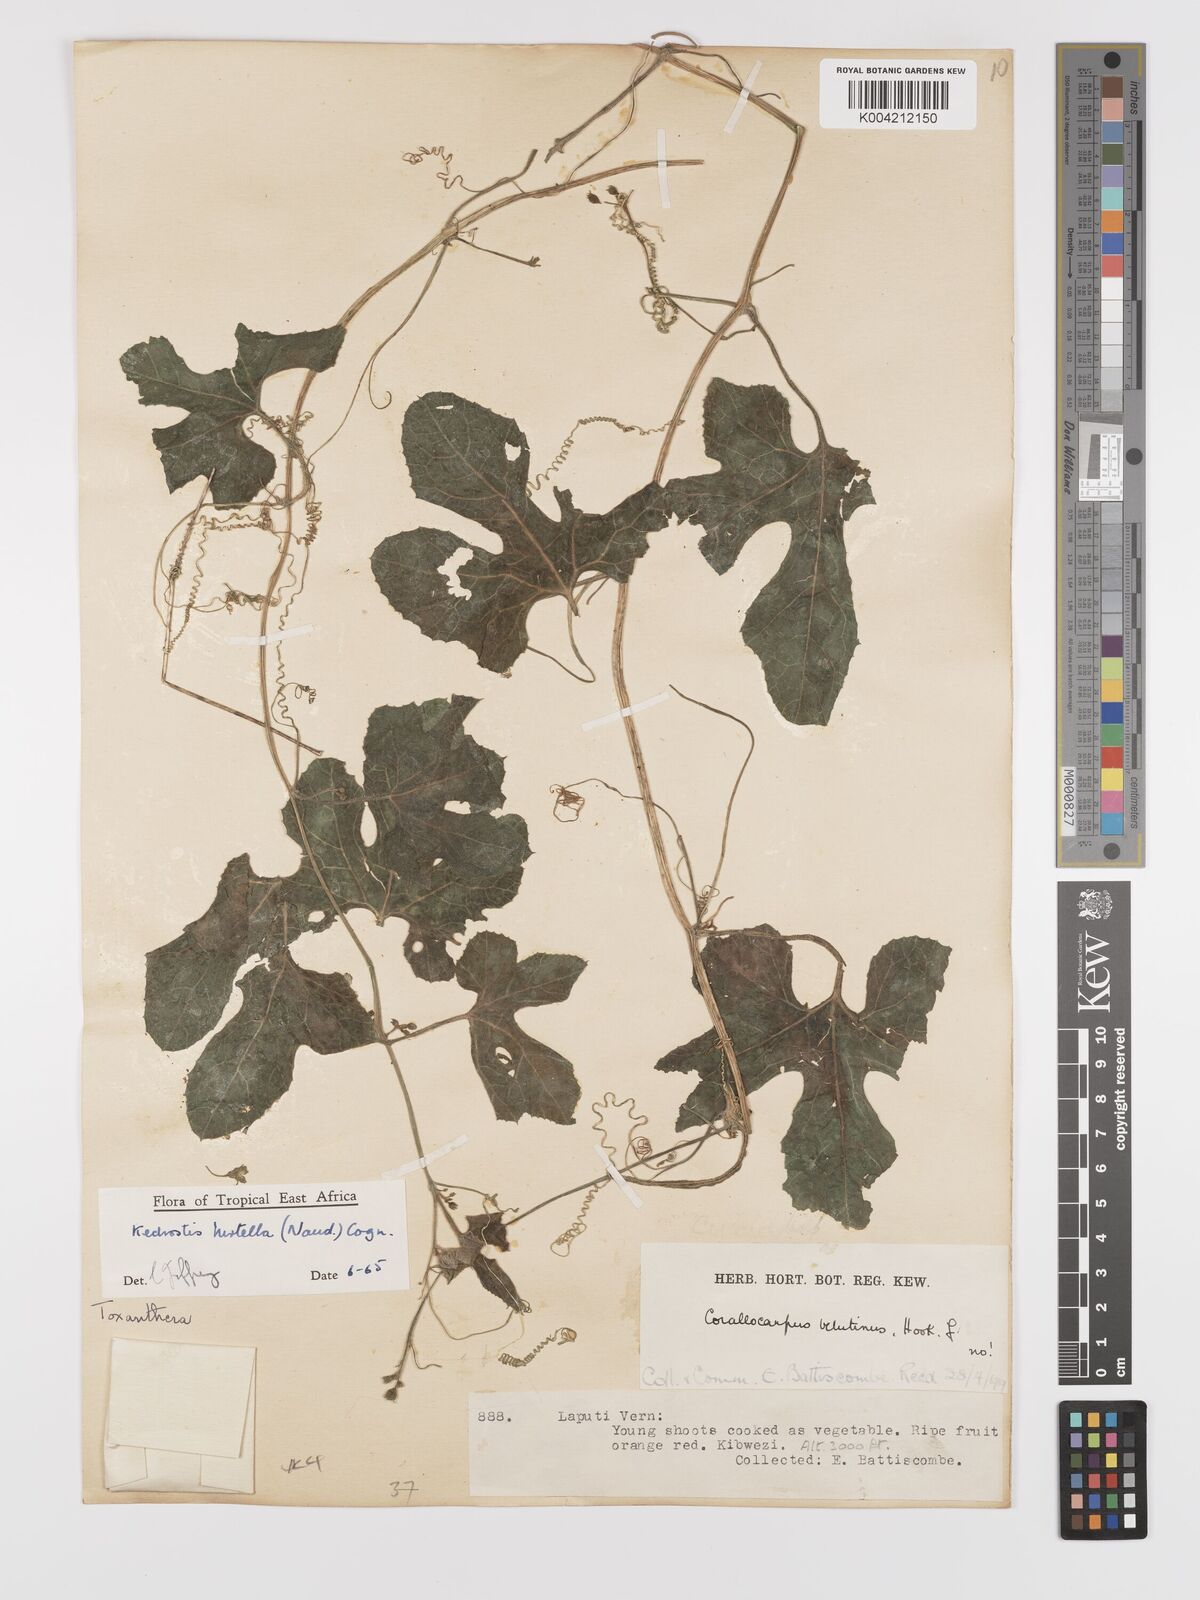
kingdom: Plantae
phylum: Tracheophyta
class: Magnoliopsida
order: Cucurbitales
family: Cucurbitaceae
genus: Kedrostis
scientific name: Kedrostis leloja
